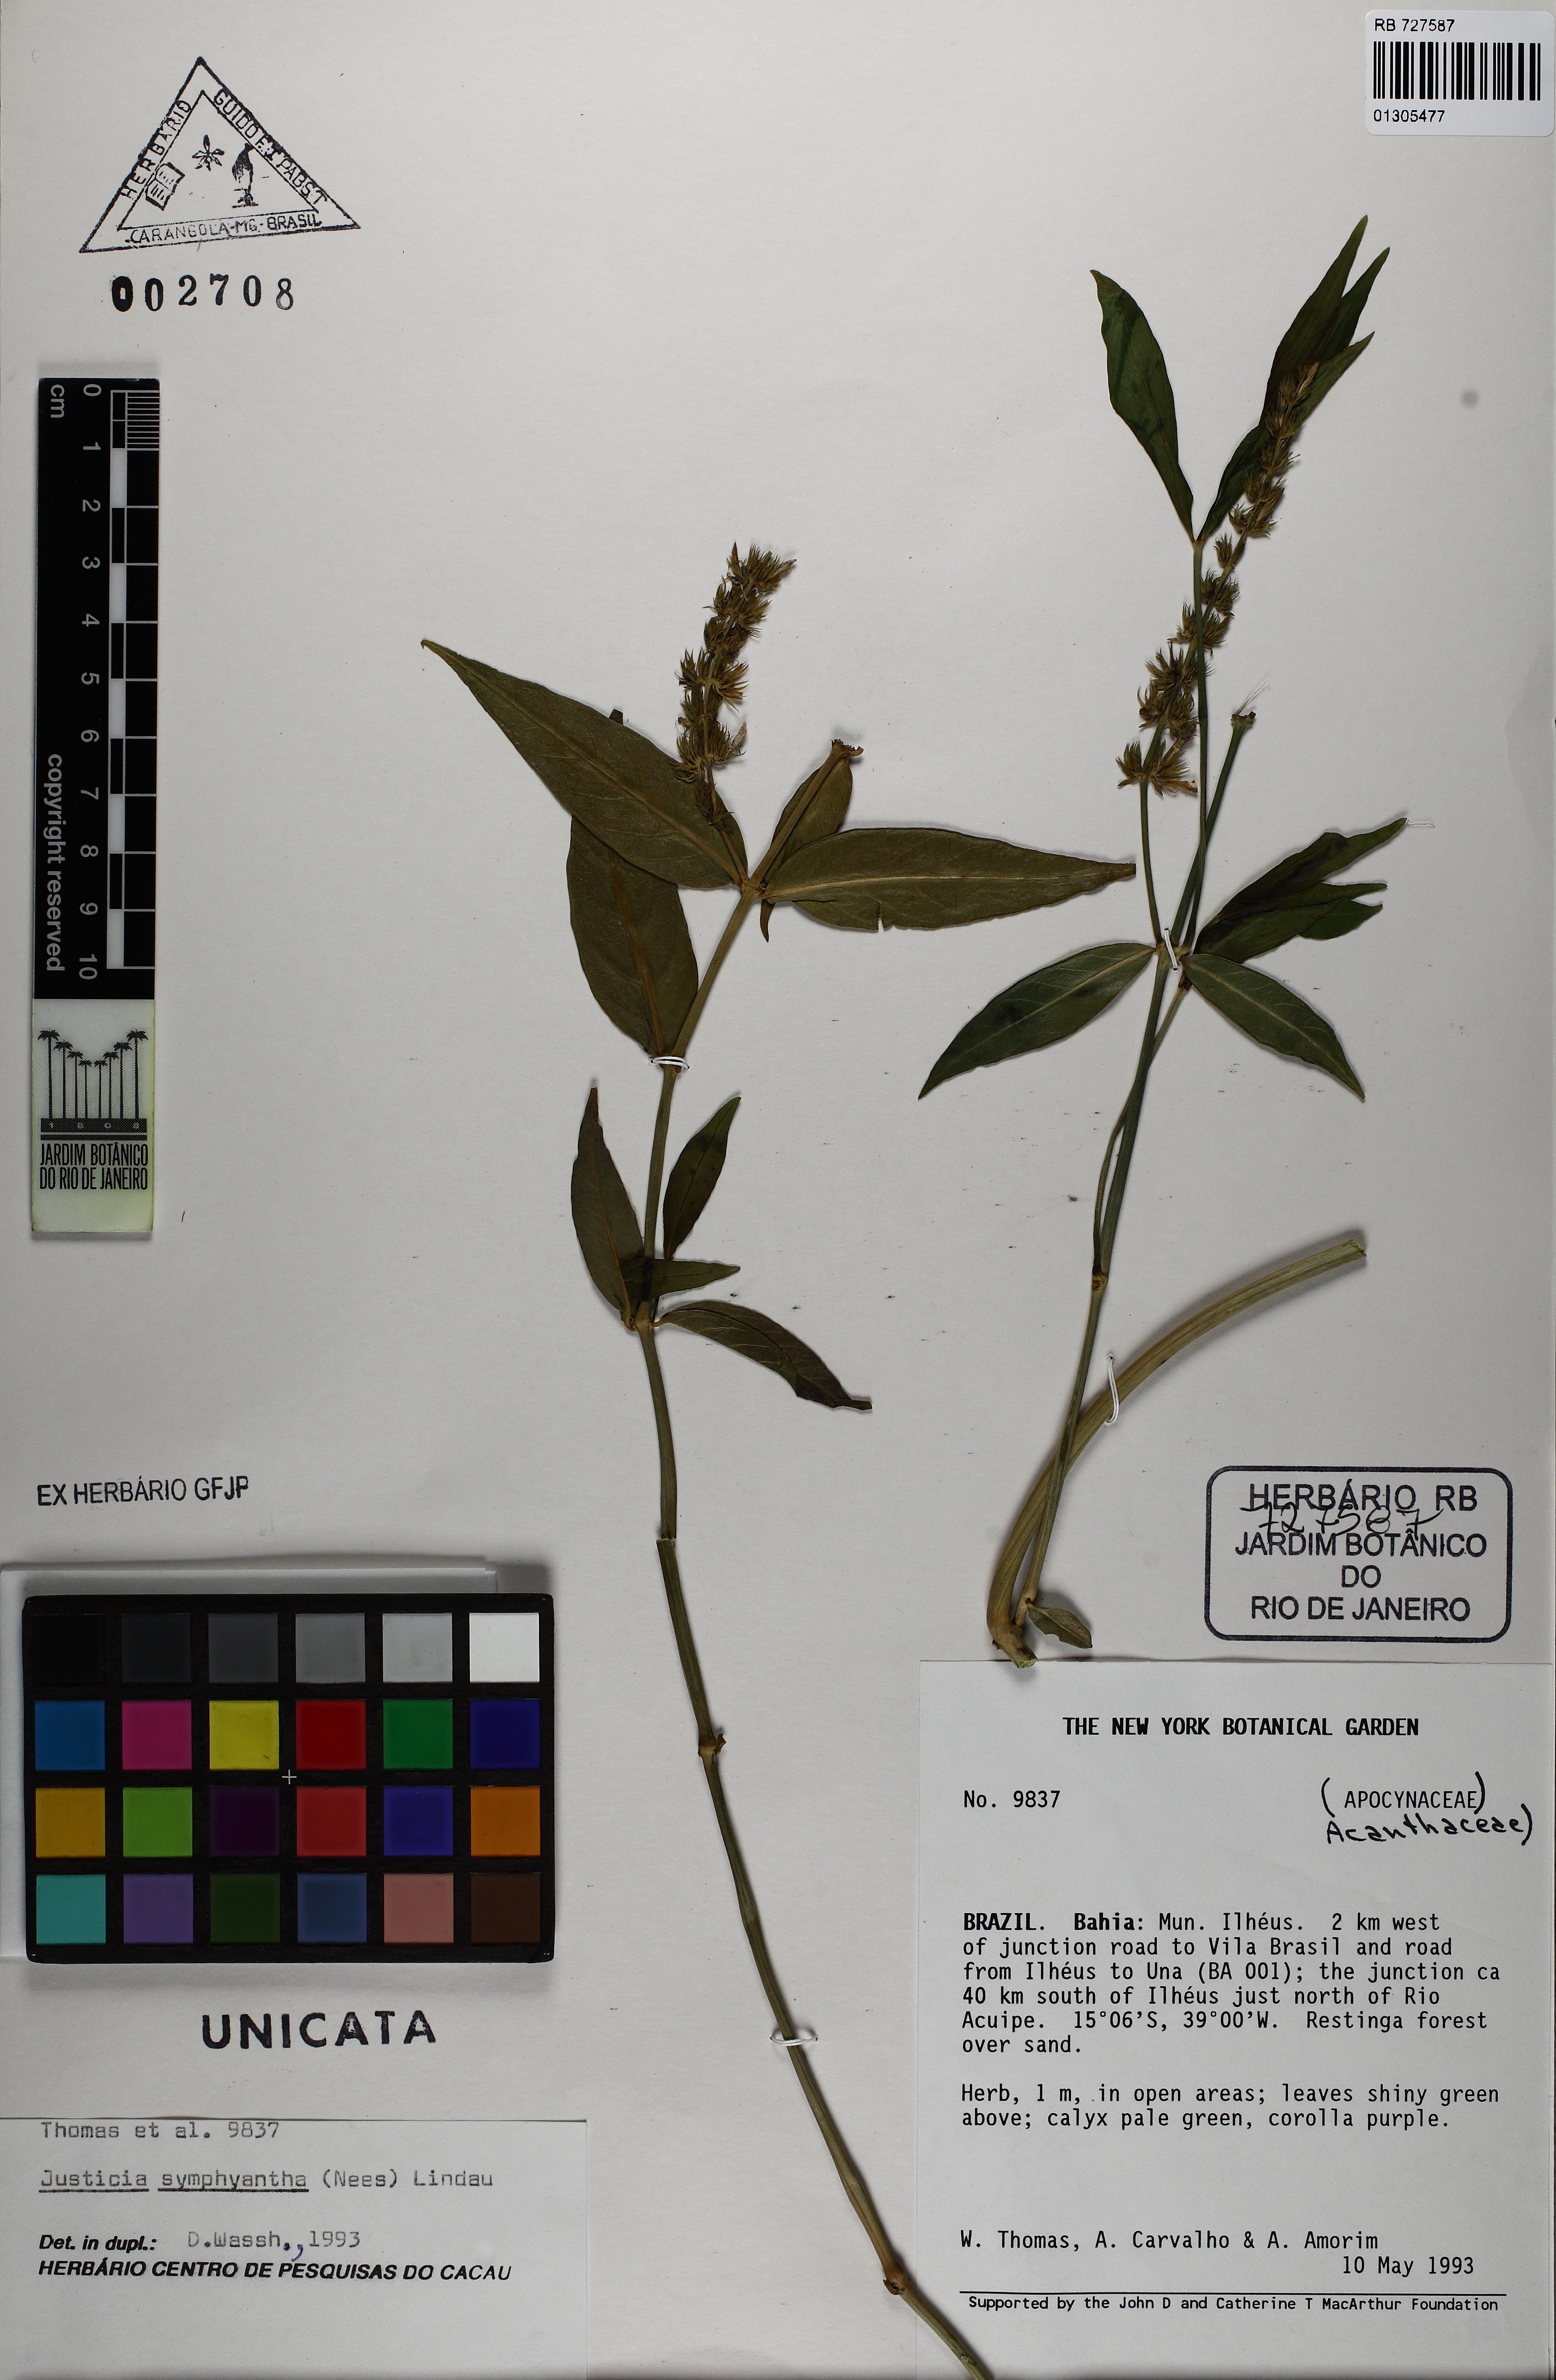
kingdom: Plantae
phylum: Tracheophyta
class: Magnoliopsida
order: Lamiales
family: Acanthaceae
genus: Justicia
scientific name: Justicia symphyantha
